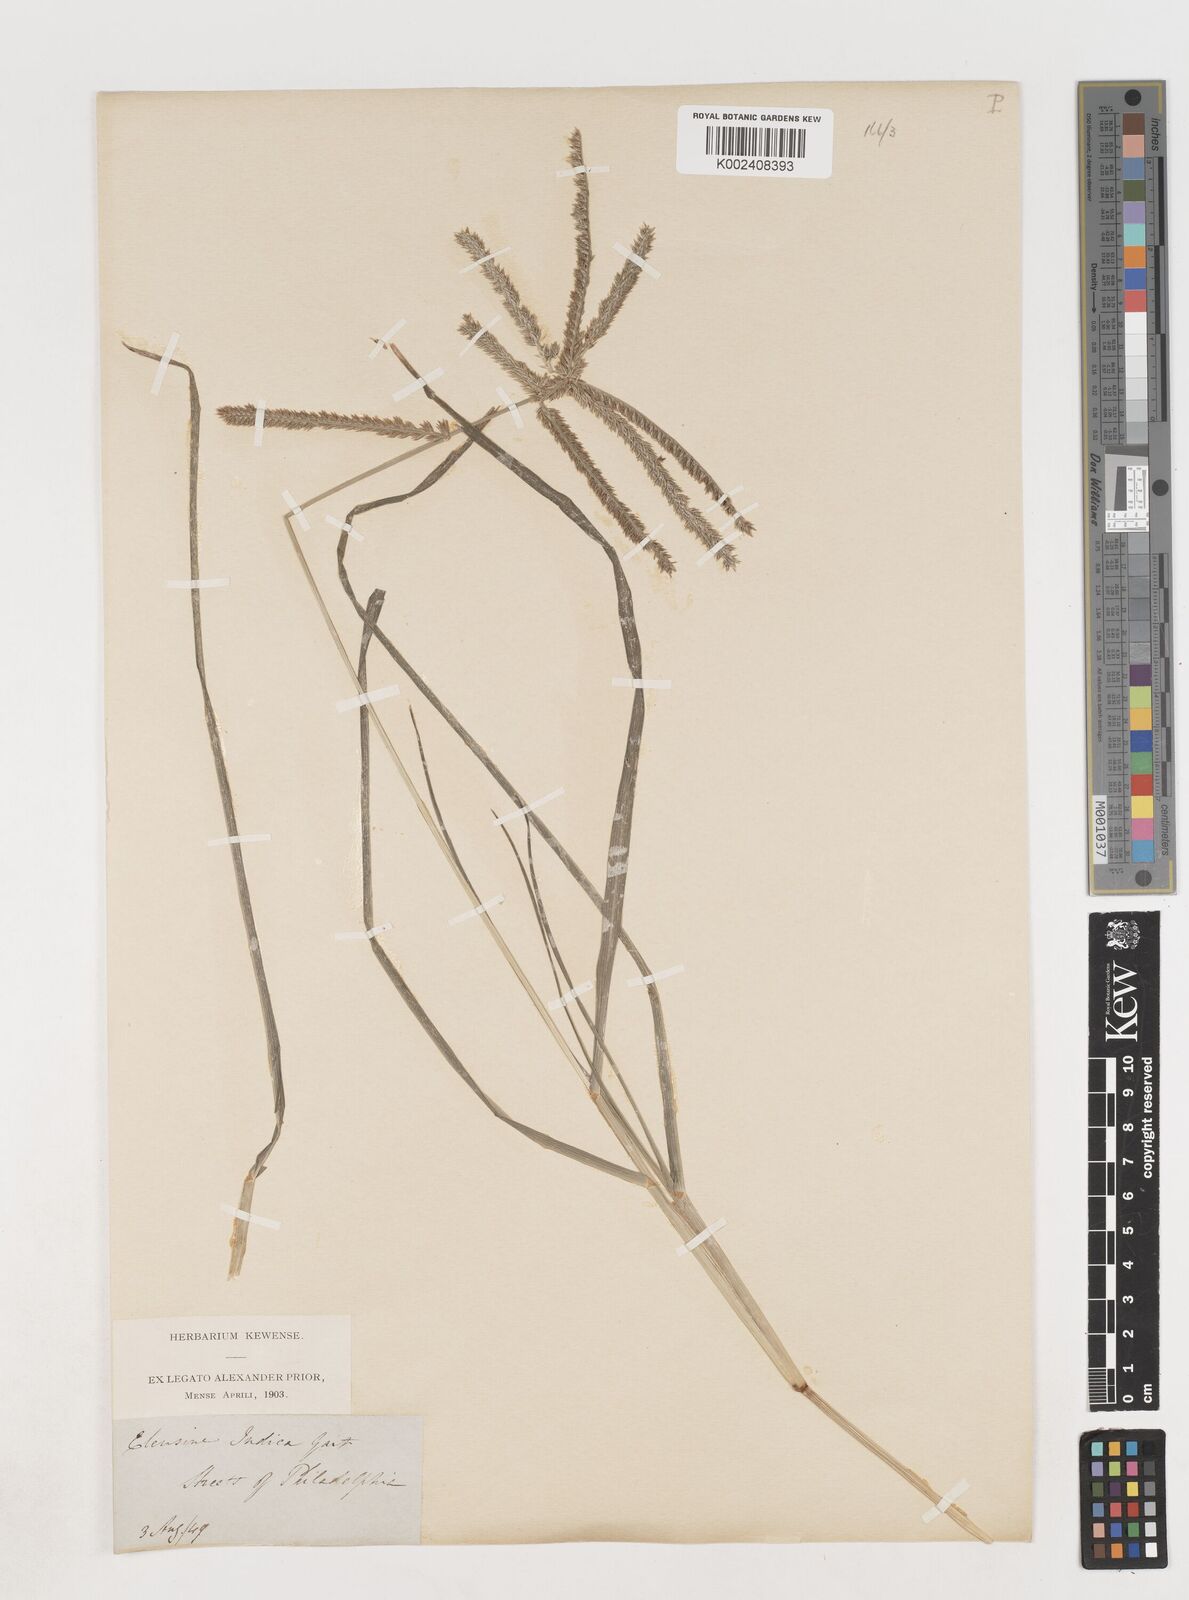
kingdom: Plantae
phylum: Tracheophyta
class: Liliopsida
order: Poales
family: Poaceae
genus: Eleusine
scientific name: Eleusine indica
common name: Yard-grass
